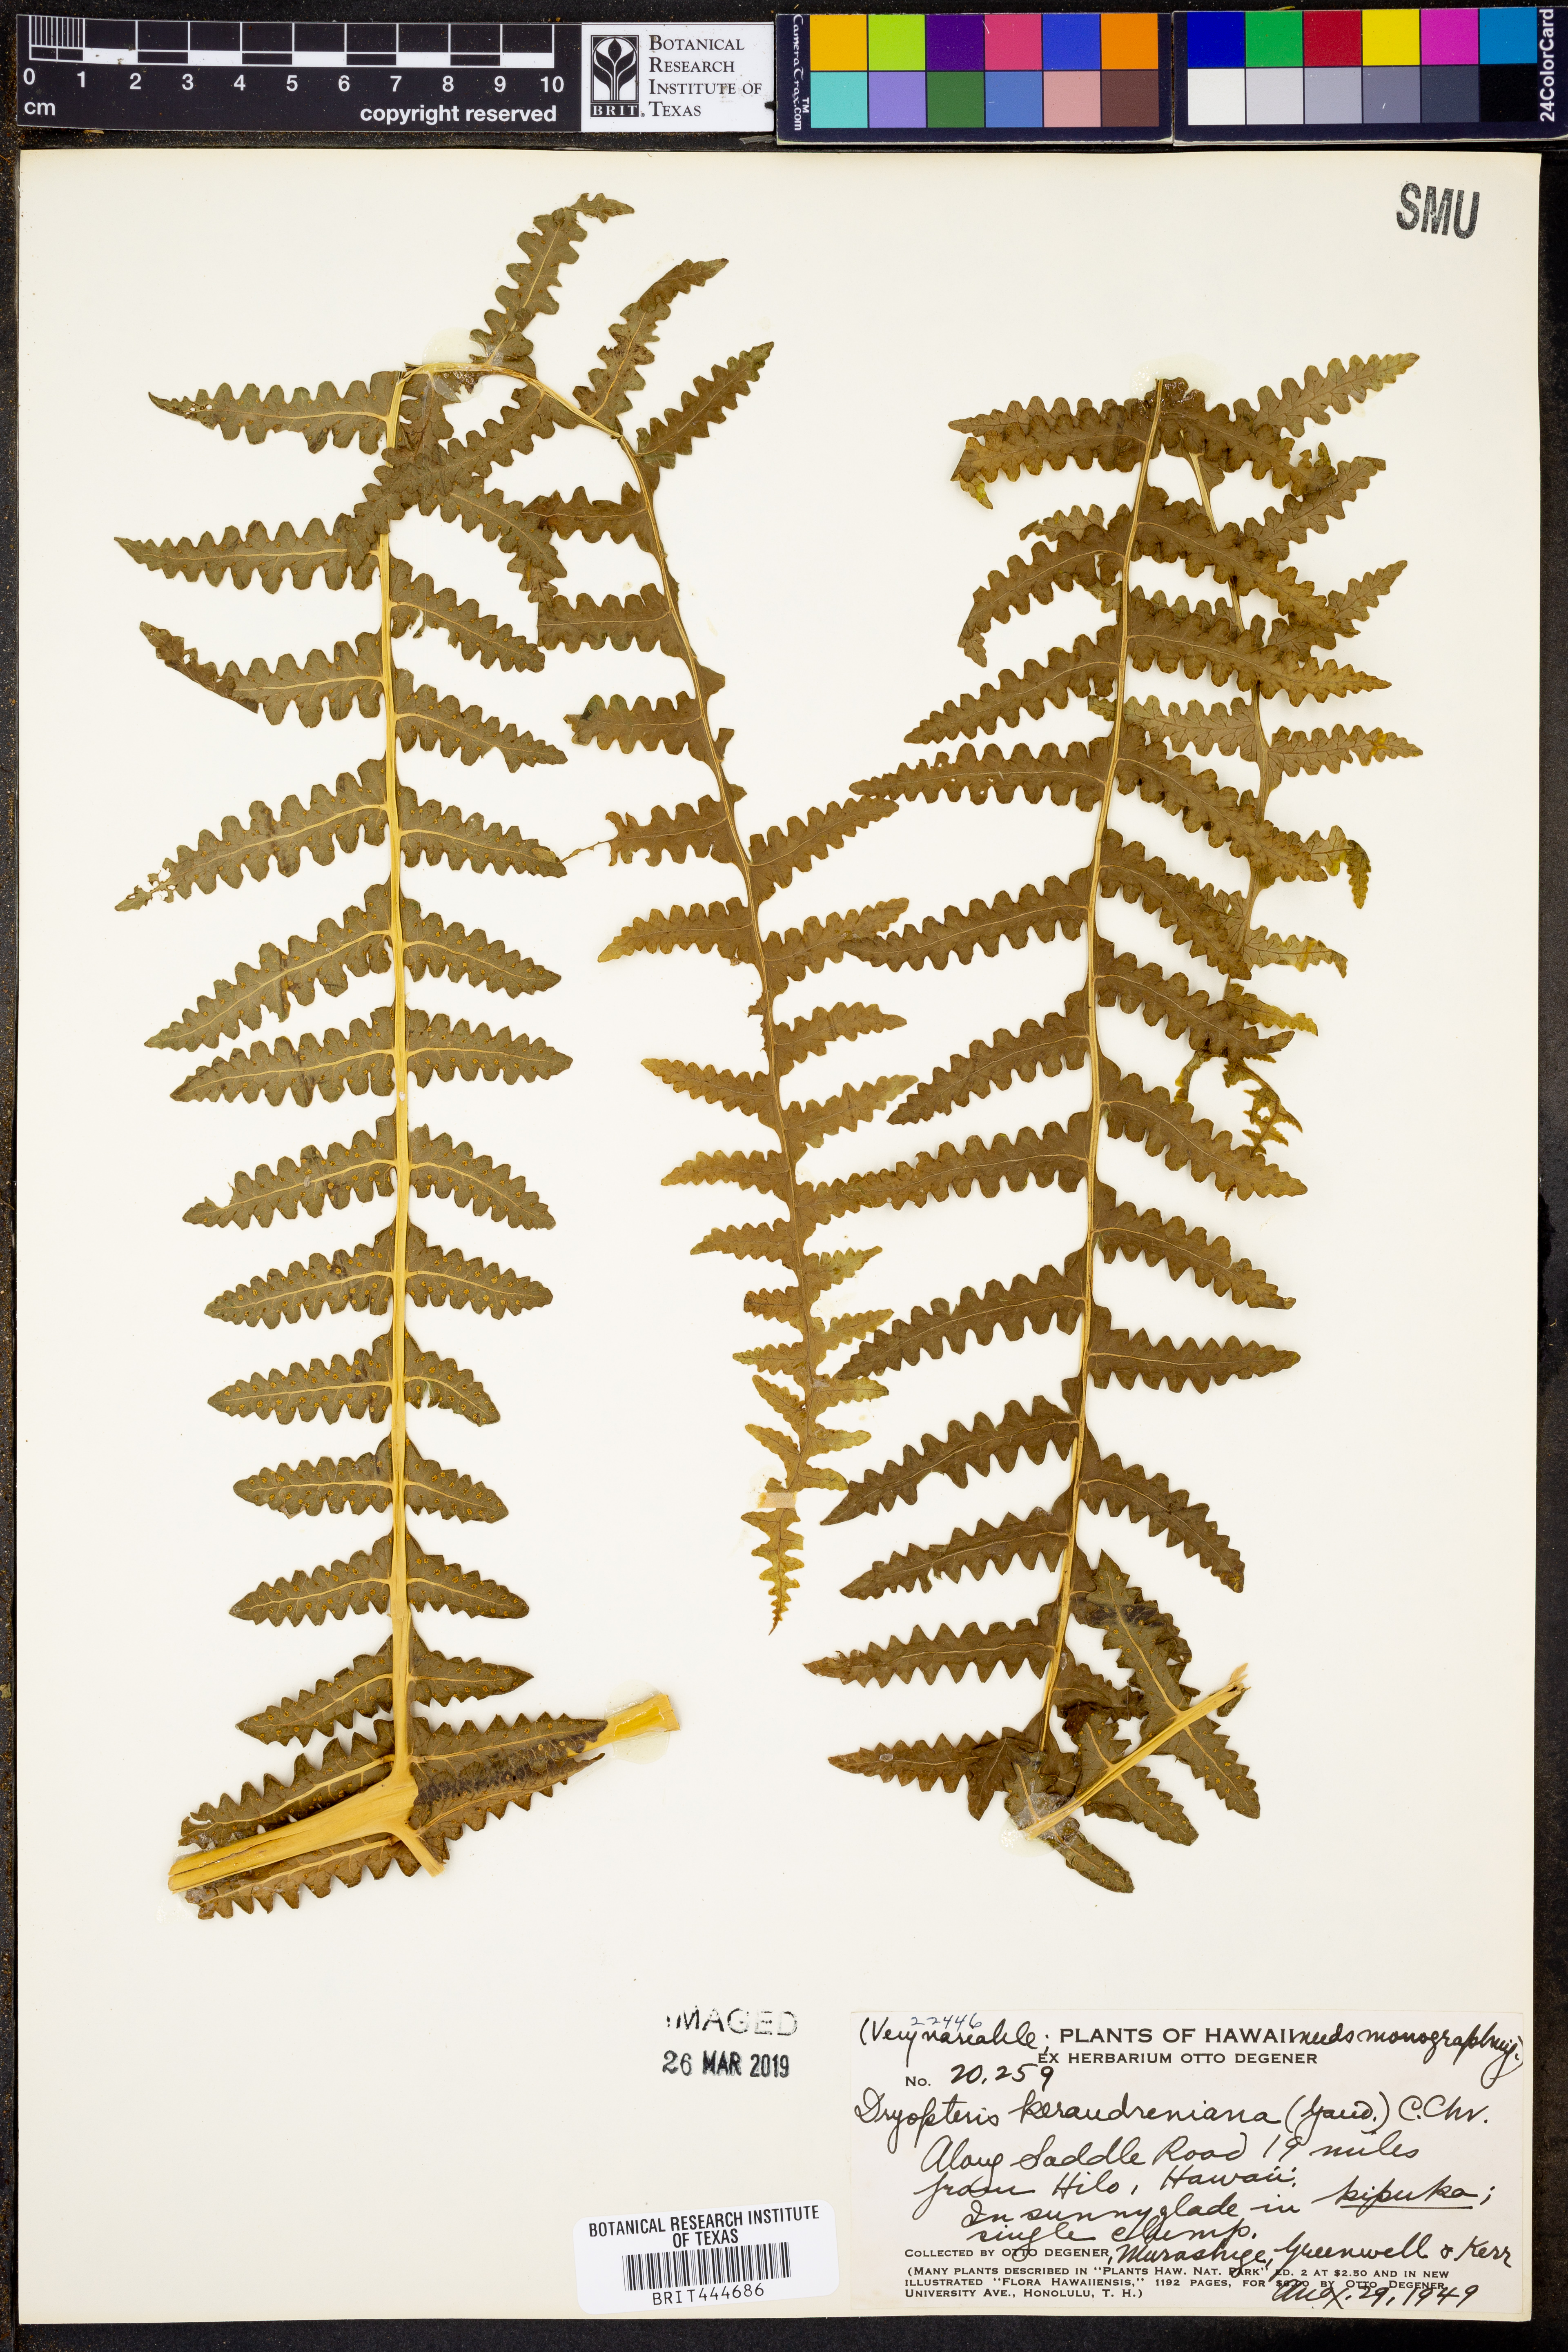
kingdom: Plantae
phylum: Tracheophyta
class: Polypodiopsida
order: Polypodiales
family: Thelypteridaceae
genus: Pseudophegopteris
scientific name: Pseudophegopteris keraudreniana
